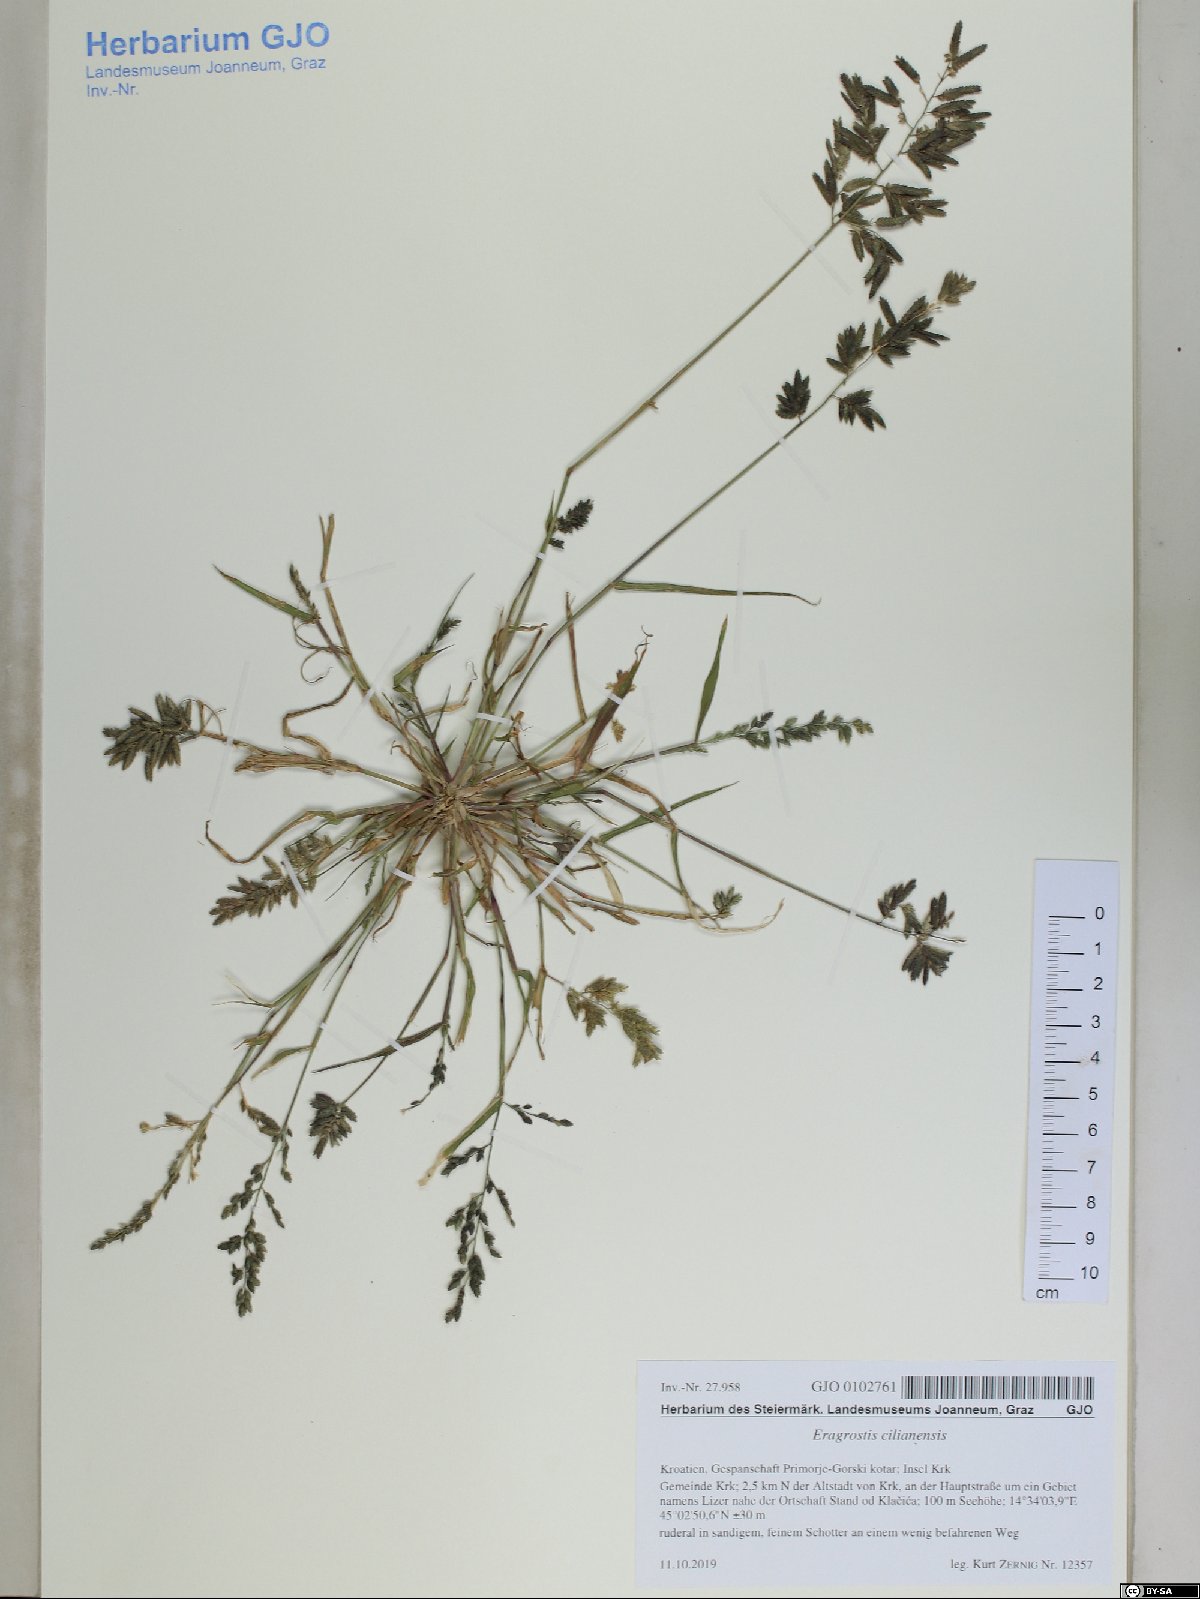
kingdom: Plantae
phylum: Tracheophyta
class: Liliopsida
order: Poales
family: Poaceae
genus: Eragrostis
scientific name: Eragrostis cilianensis
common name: Stinkgrass
